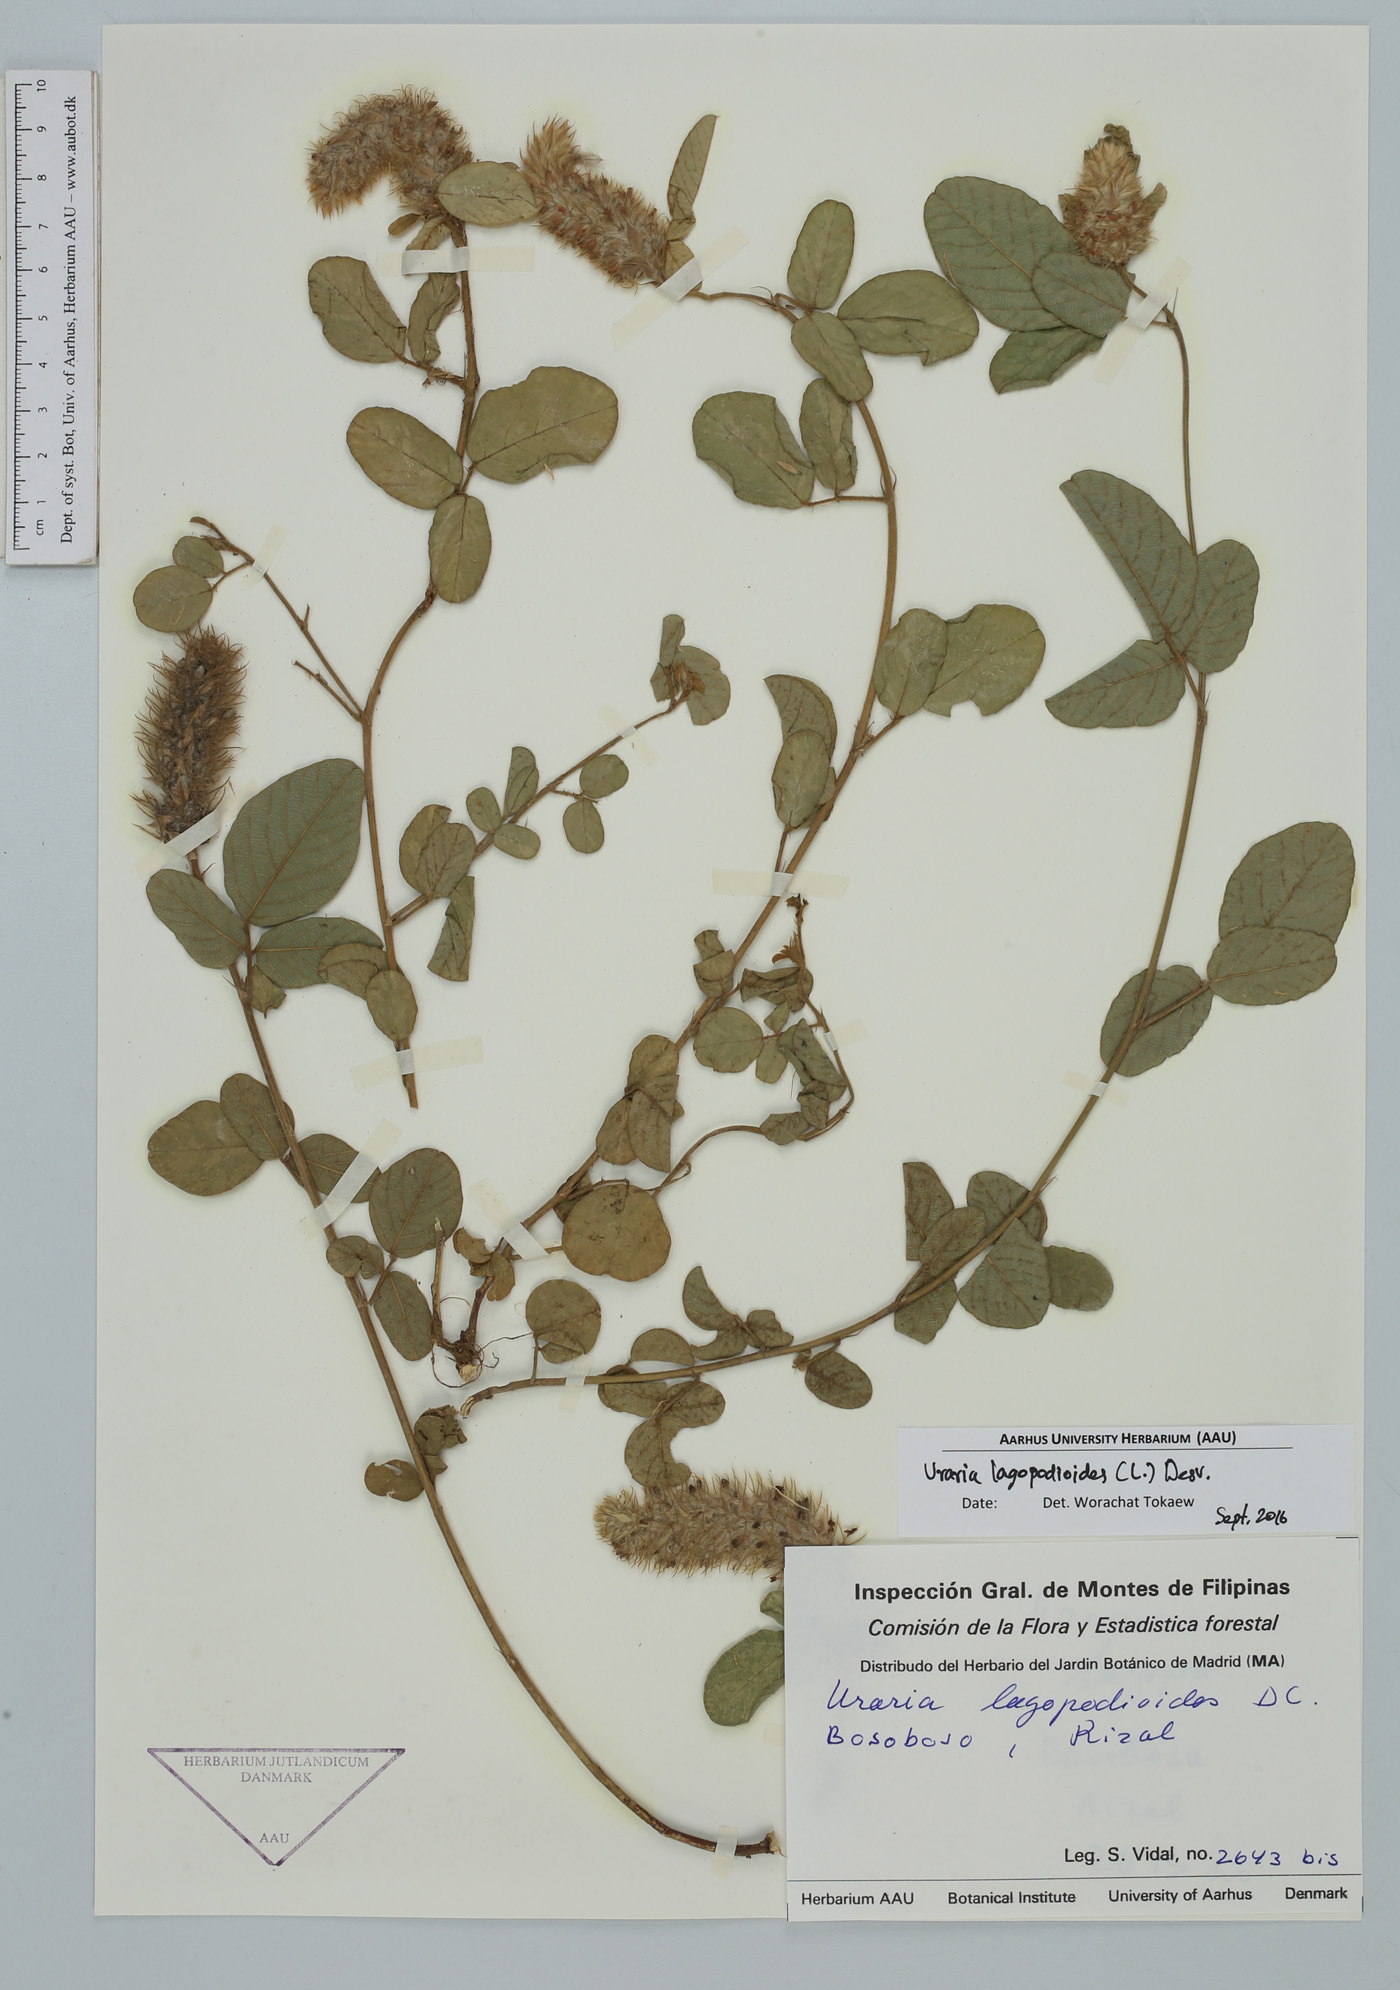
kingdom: Plantae
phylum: Tracheophyta
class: Magnoliopsida
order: Fabales
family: Fabaceae
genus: Uraria
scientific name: Uraria lagopodioides
